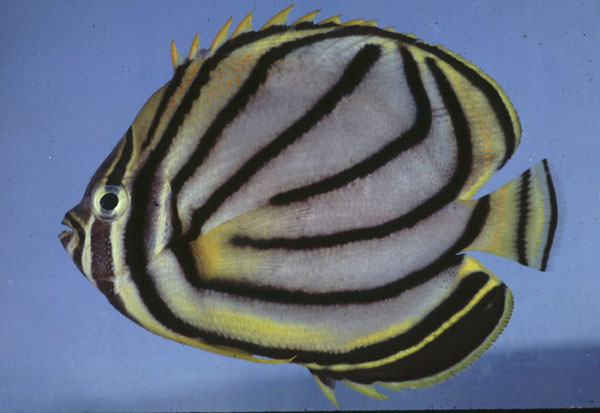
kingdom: Animalia
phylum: Chordata
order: Perciformes
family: Chaetodontidae
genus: Chaetodon
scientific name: Chaetodon meyeri
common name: Meyer's butterflyfish
